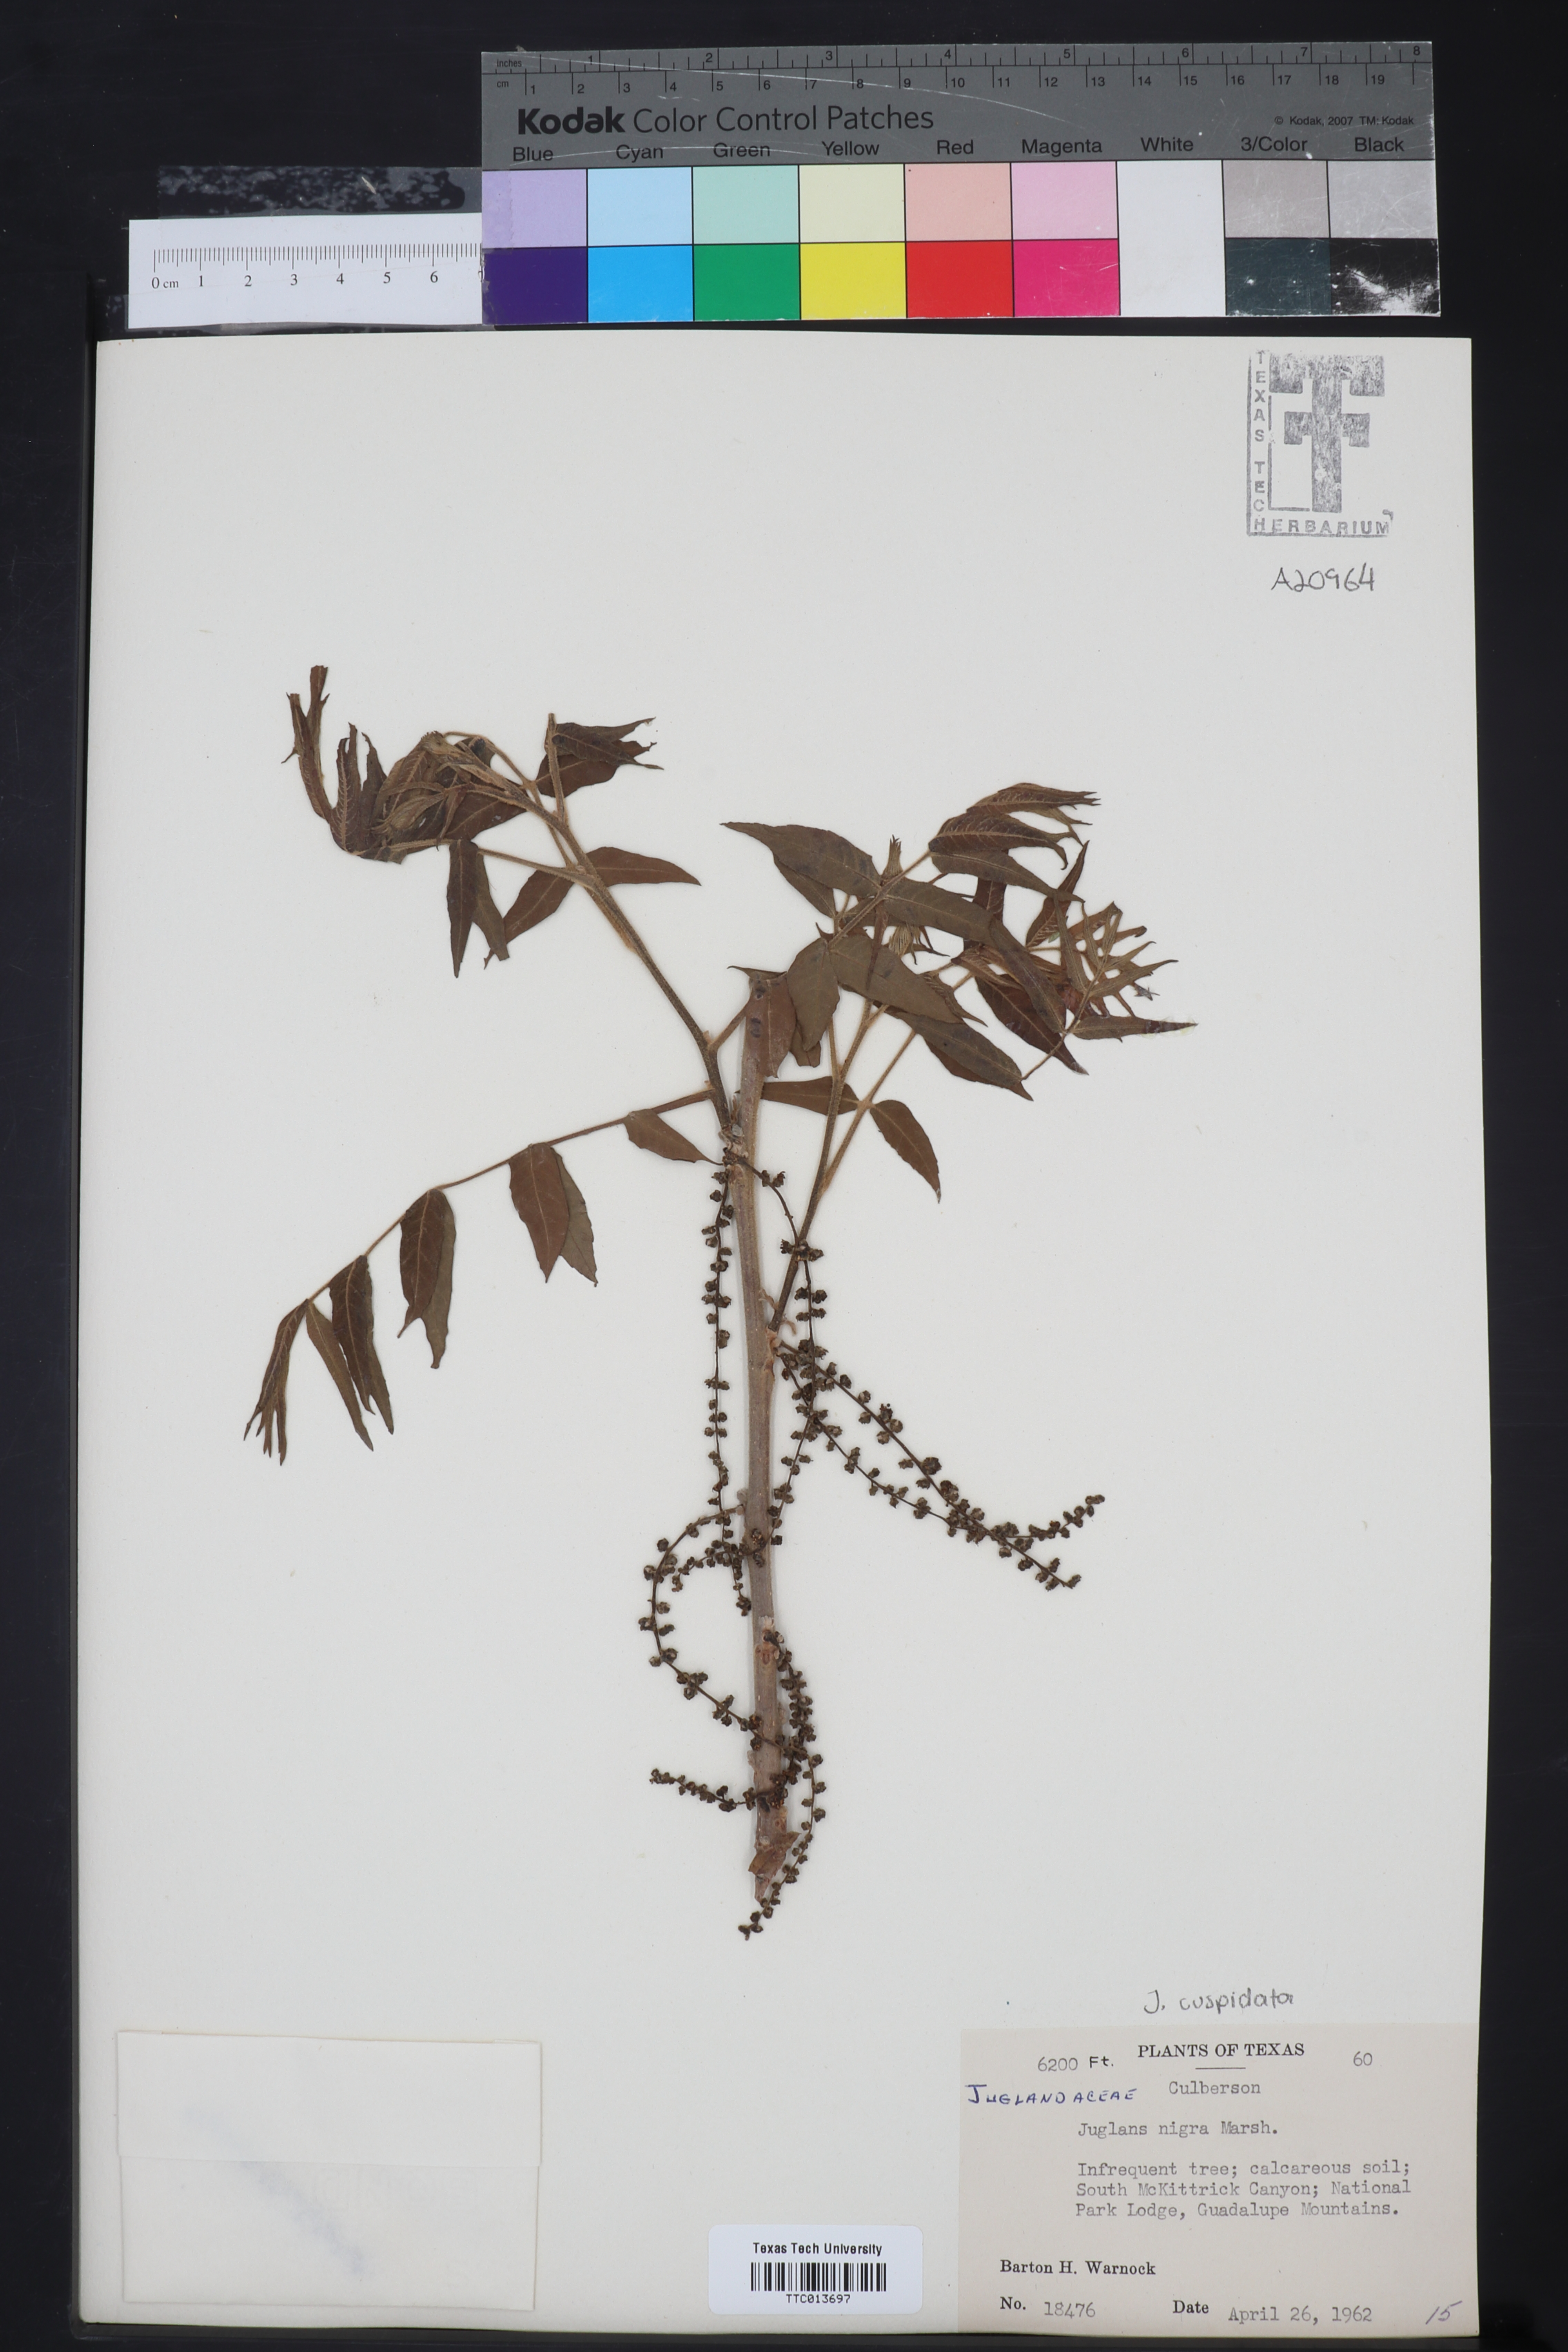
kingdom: Plantae
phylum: Tracheophyta
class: Magnoliopsida
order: Fagales
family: Juglandaceae
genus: Juglans
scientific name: Juglans nigra
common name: Black walnut
